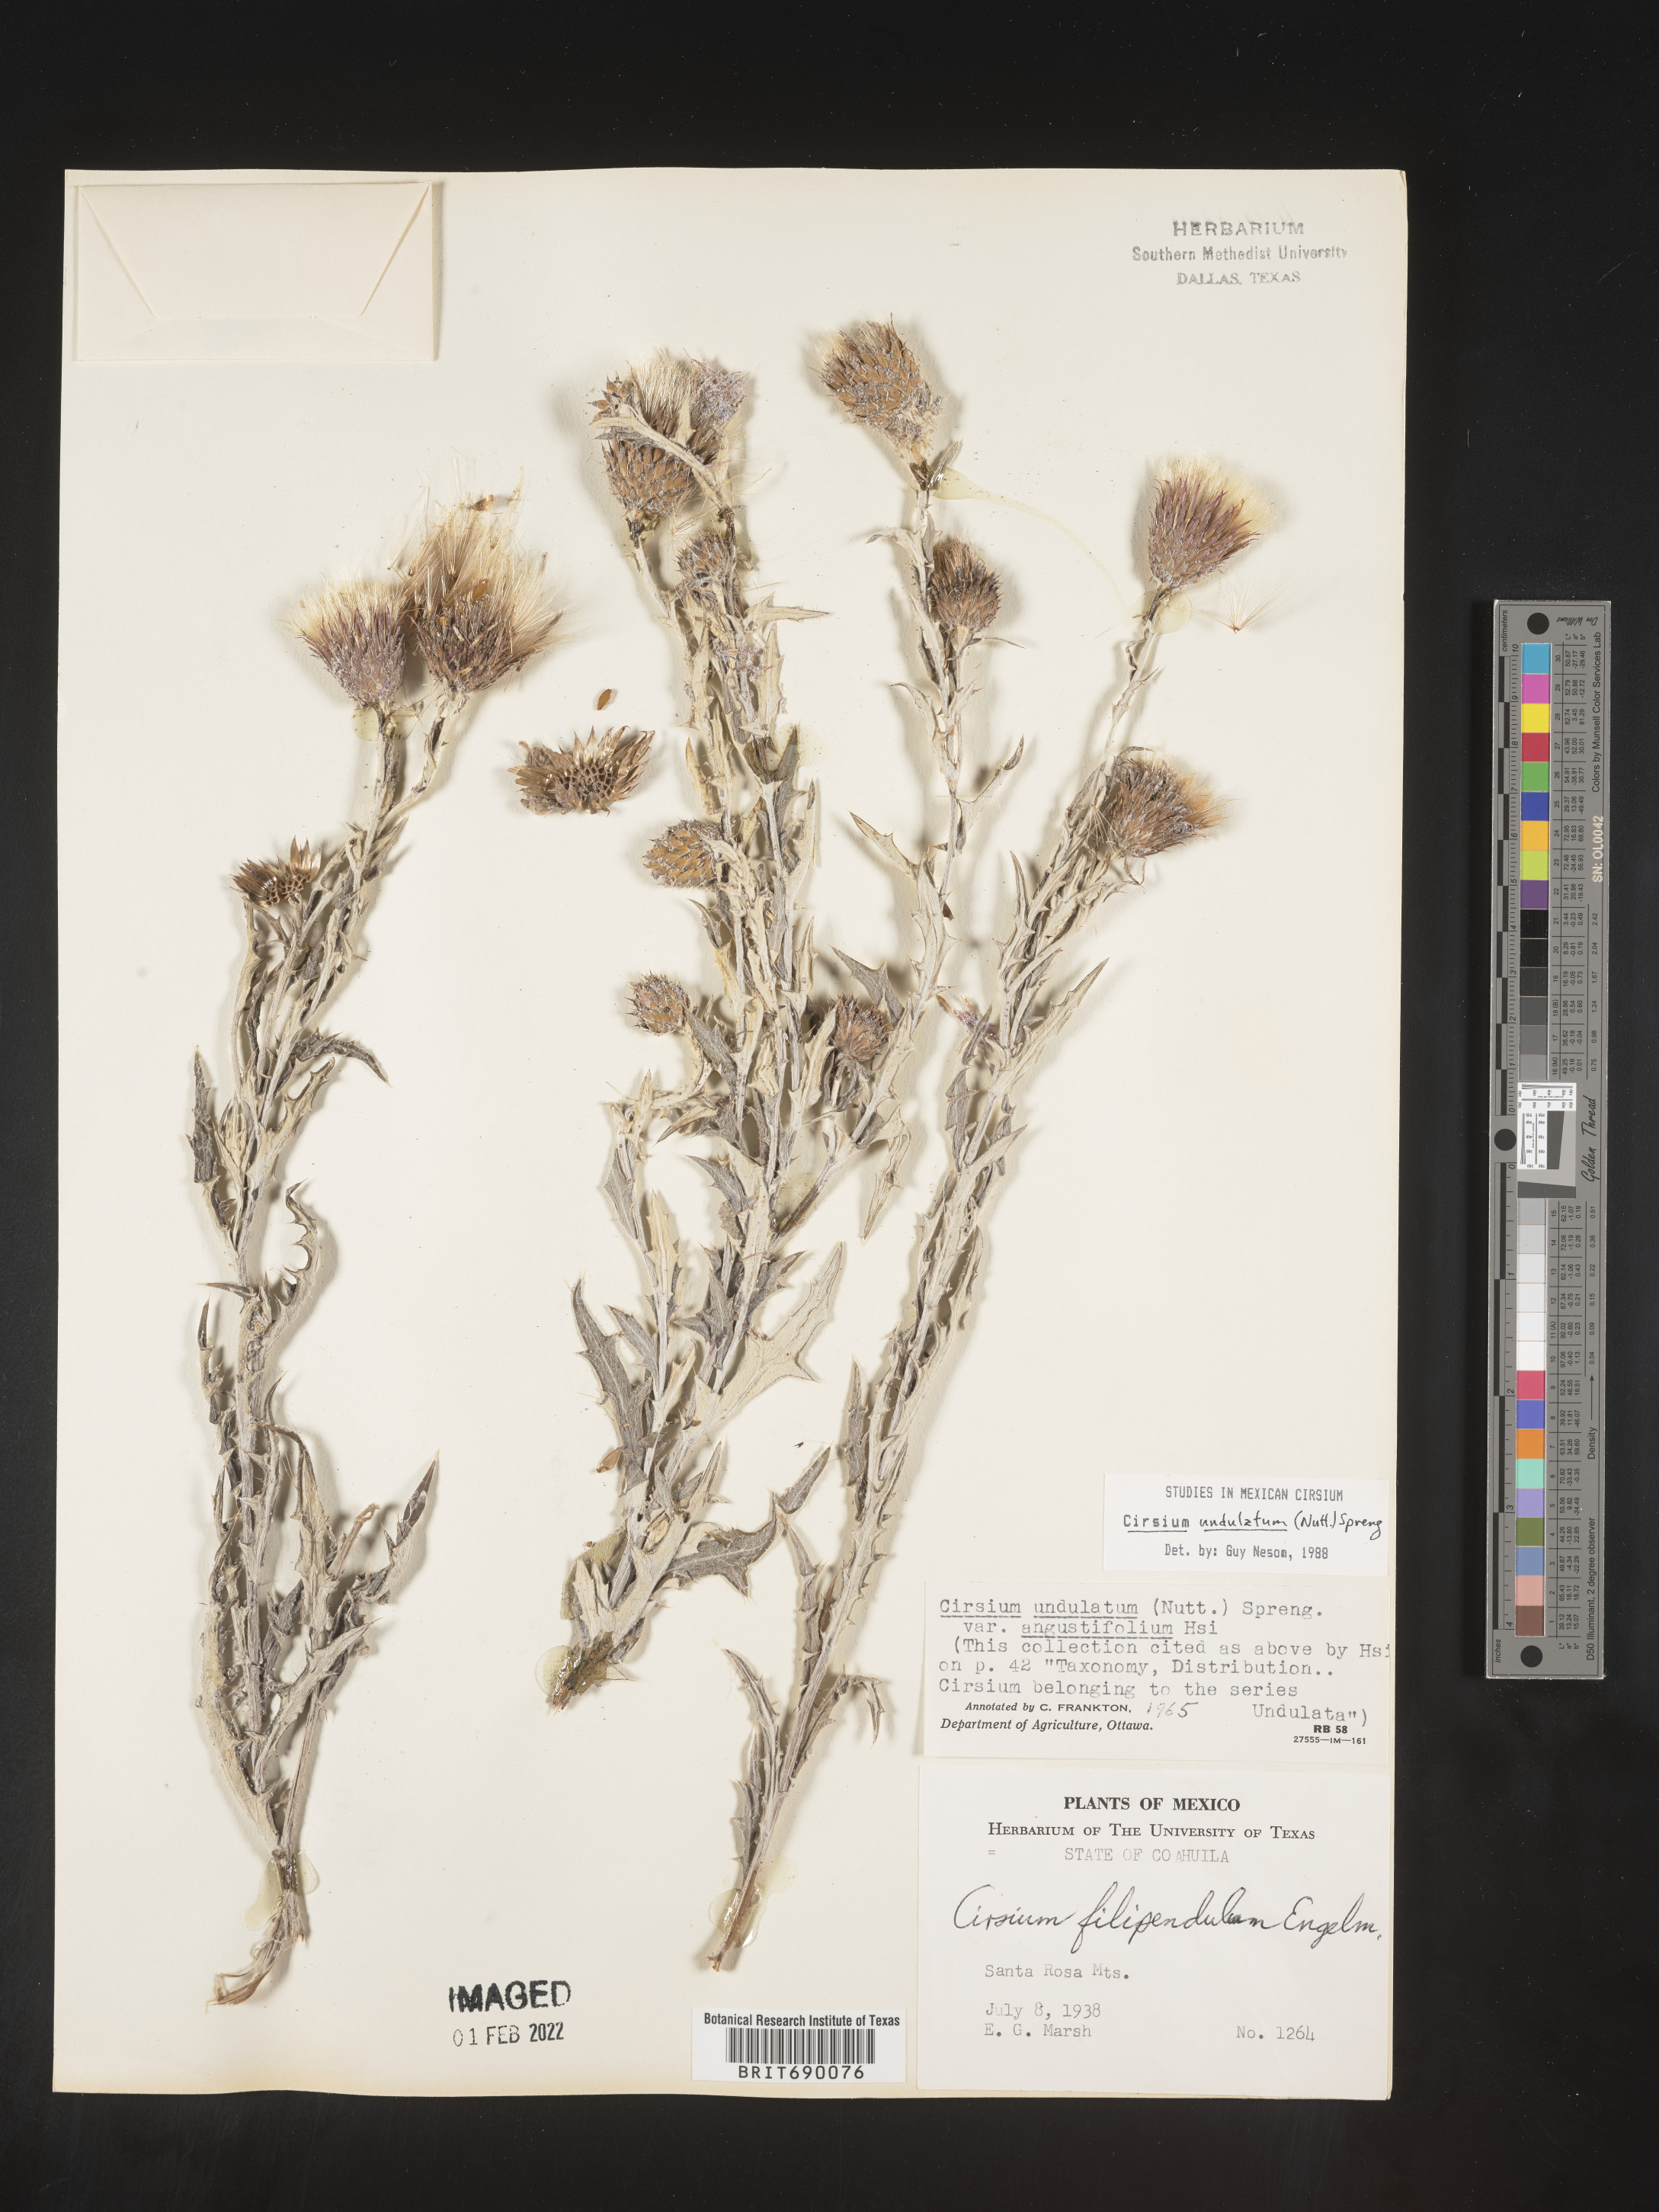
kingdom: Plantae
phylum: Tracheophyta
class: Magnoliopsida
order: Asterales
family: Asteraceae
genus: Cirsium
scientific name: Cirsium
